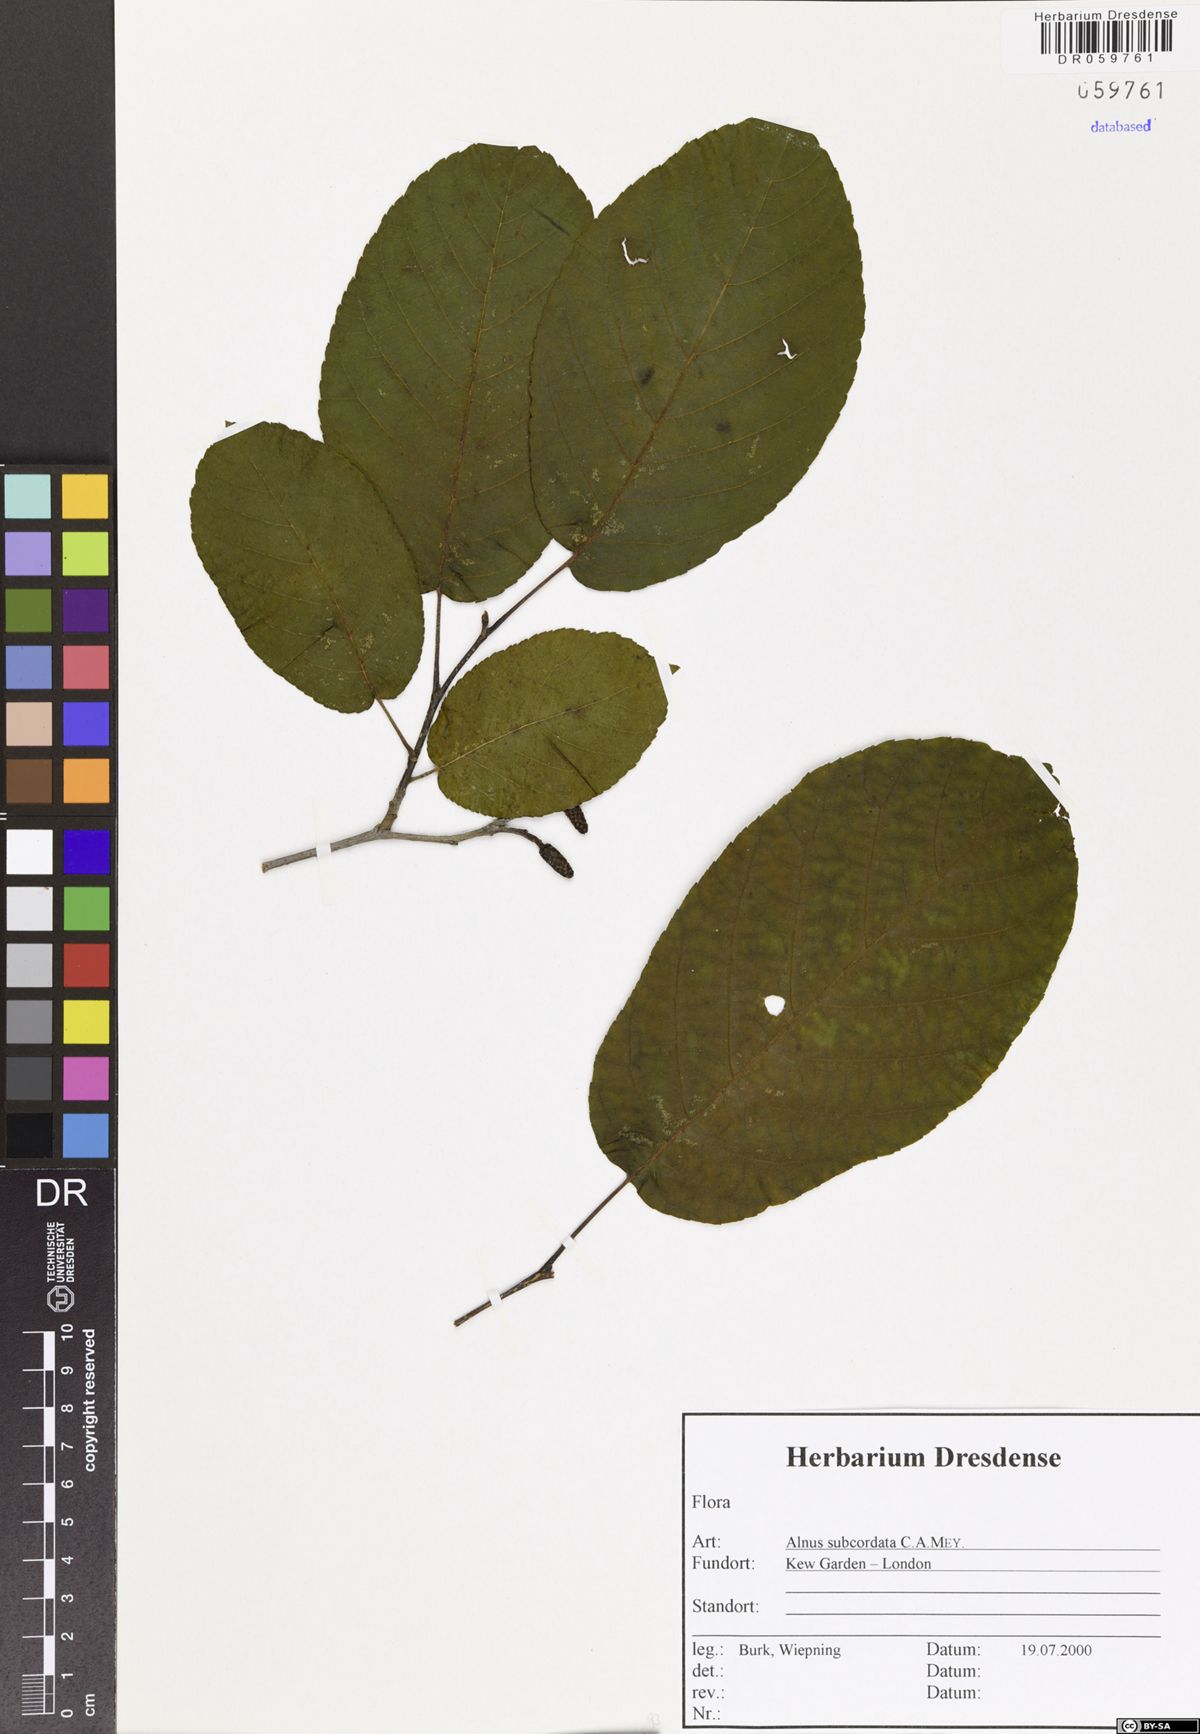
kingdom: Plantae
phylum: Tracheophyta
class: Magnoliopsida
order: Fagales
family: Betulaceae
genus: Alnus
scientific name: Alnus subcordata
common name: Caucasian alder
